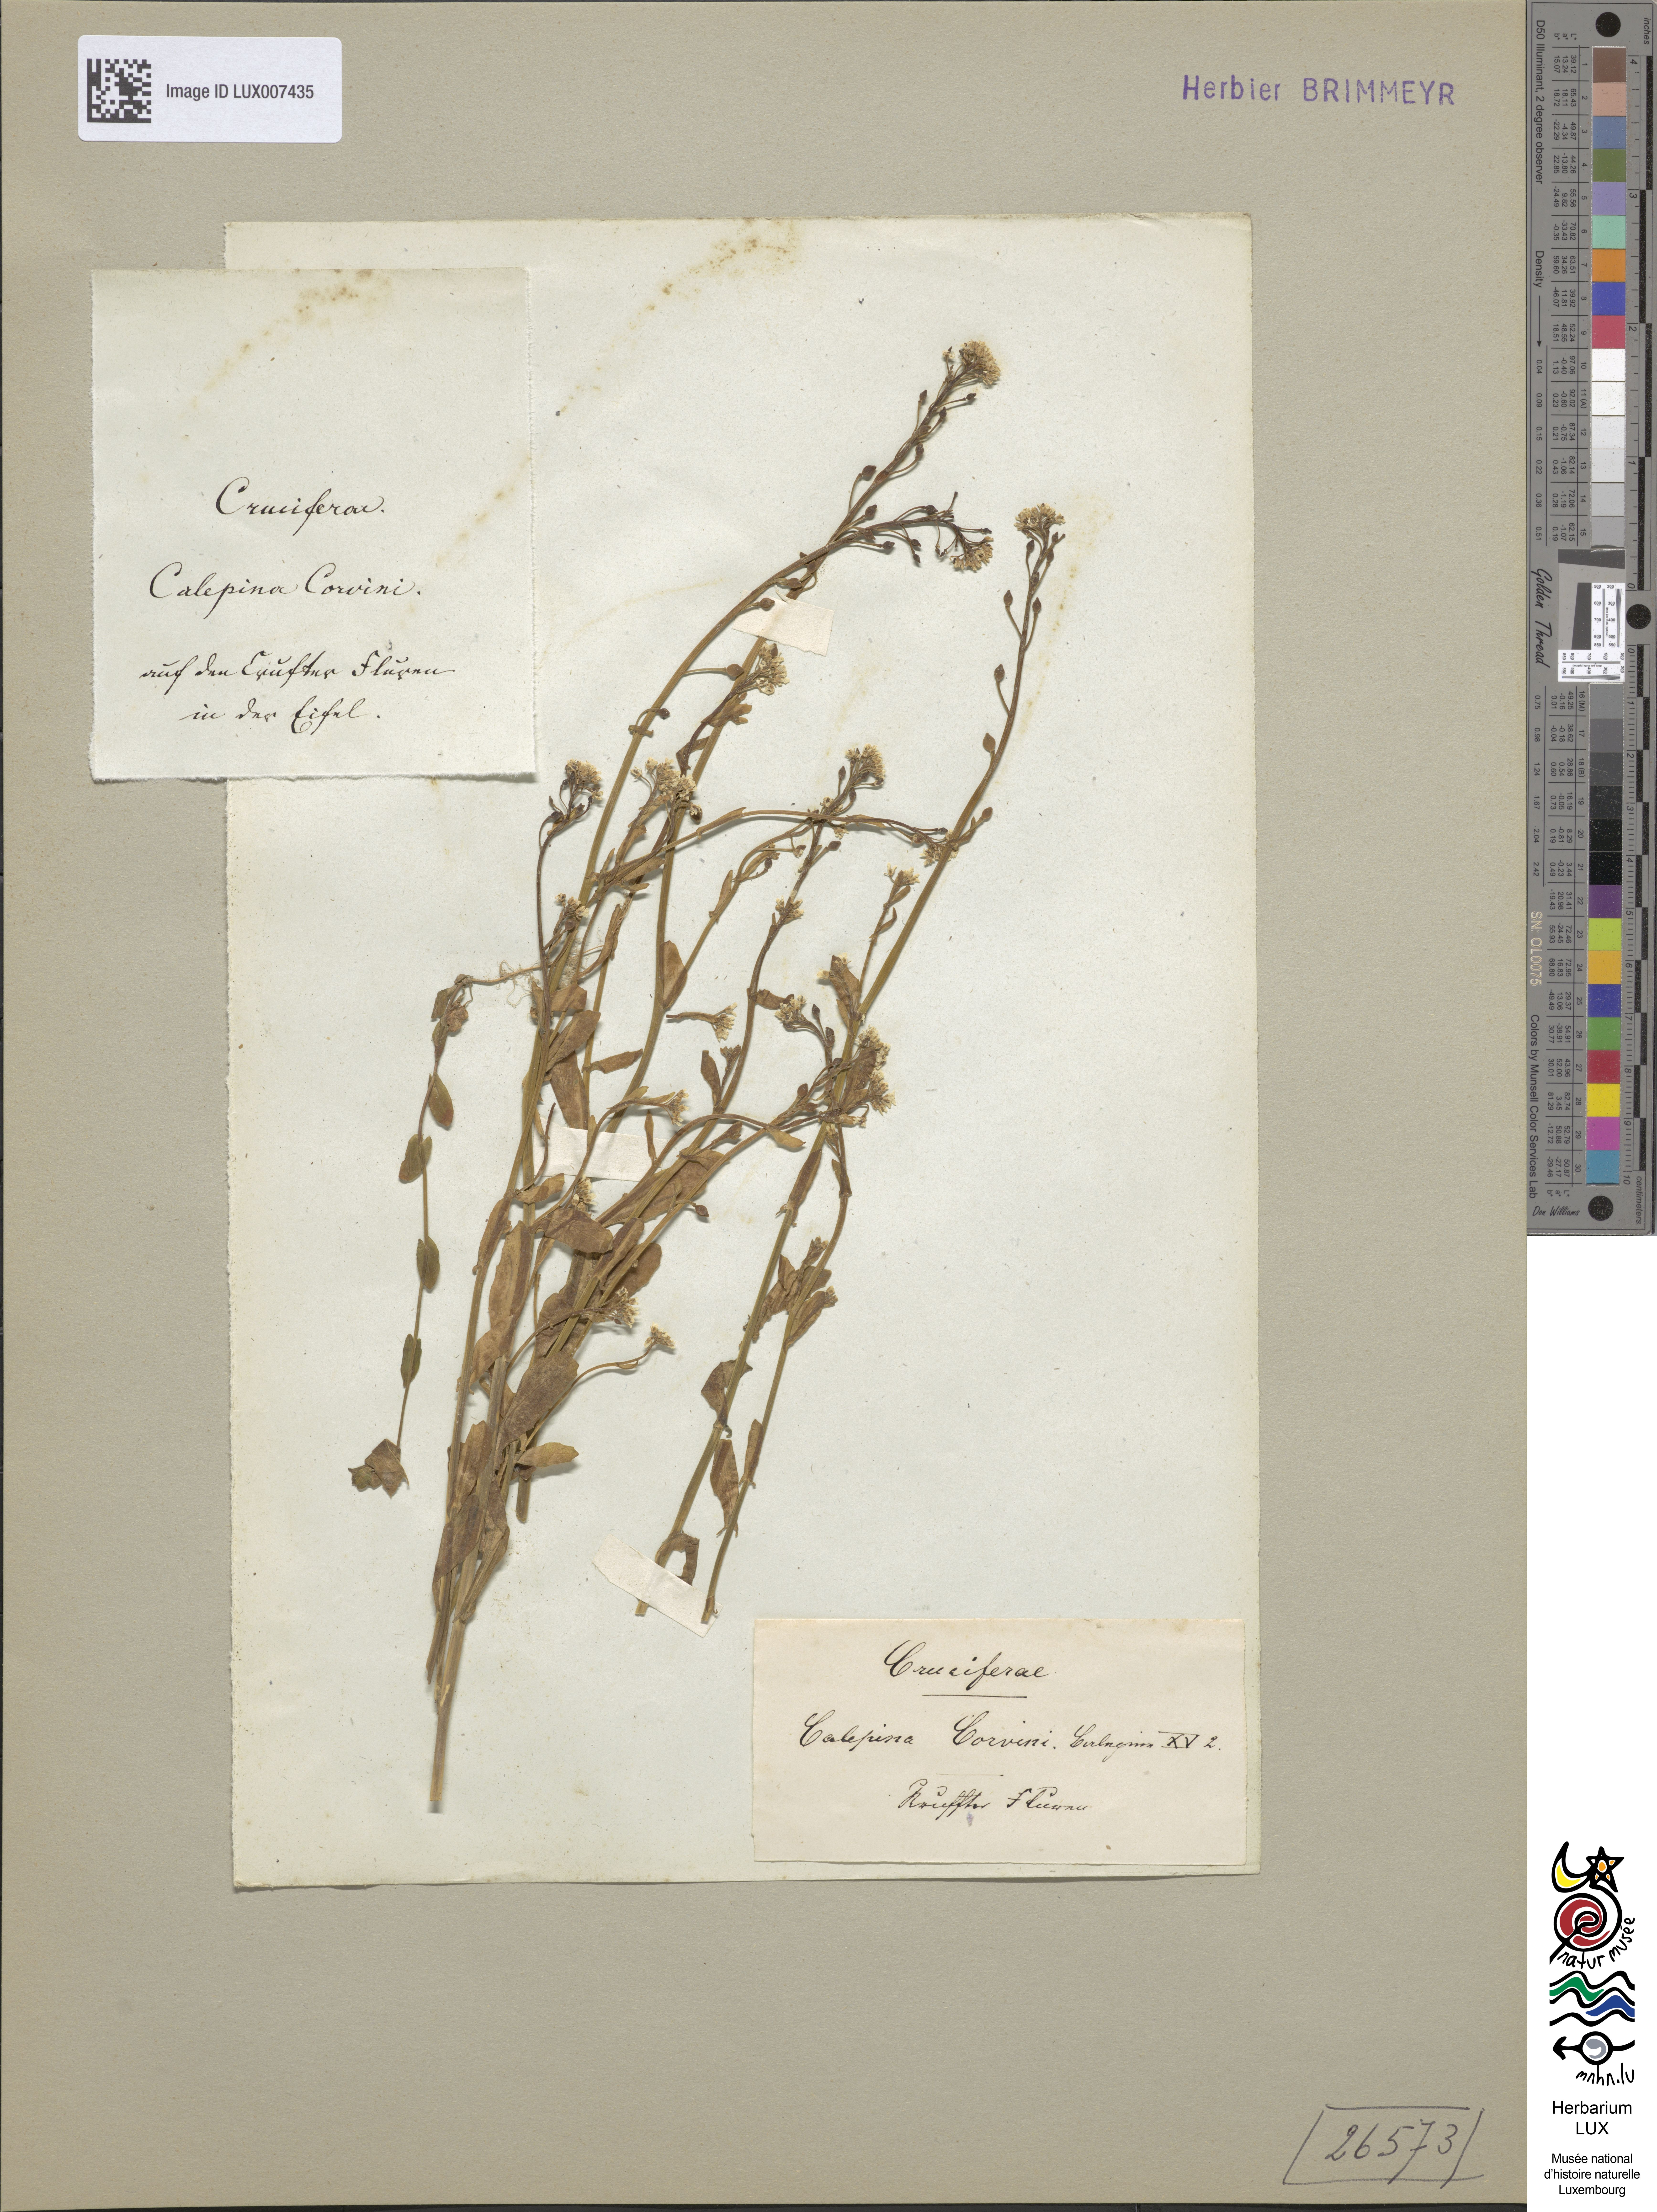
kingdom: Plantae
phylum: Tracheophyta
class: Magnoliopsida
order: Brassicales
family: Brassicaceae
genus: Calepina
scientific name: Calepina irregularis
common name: White ballmustard
